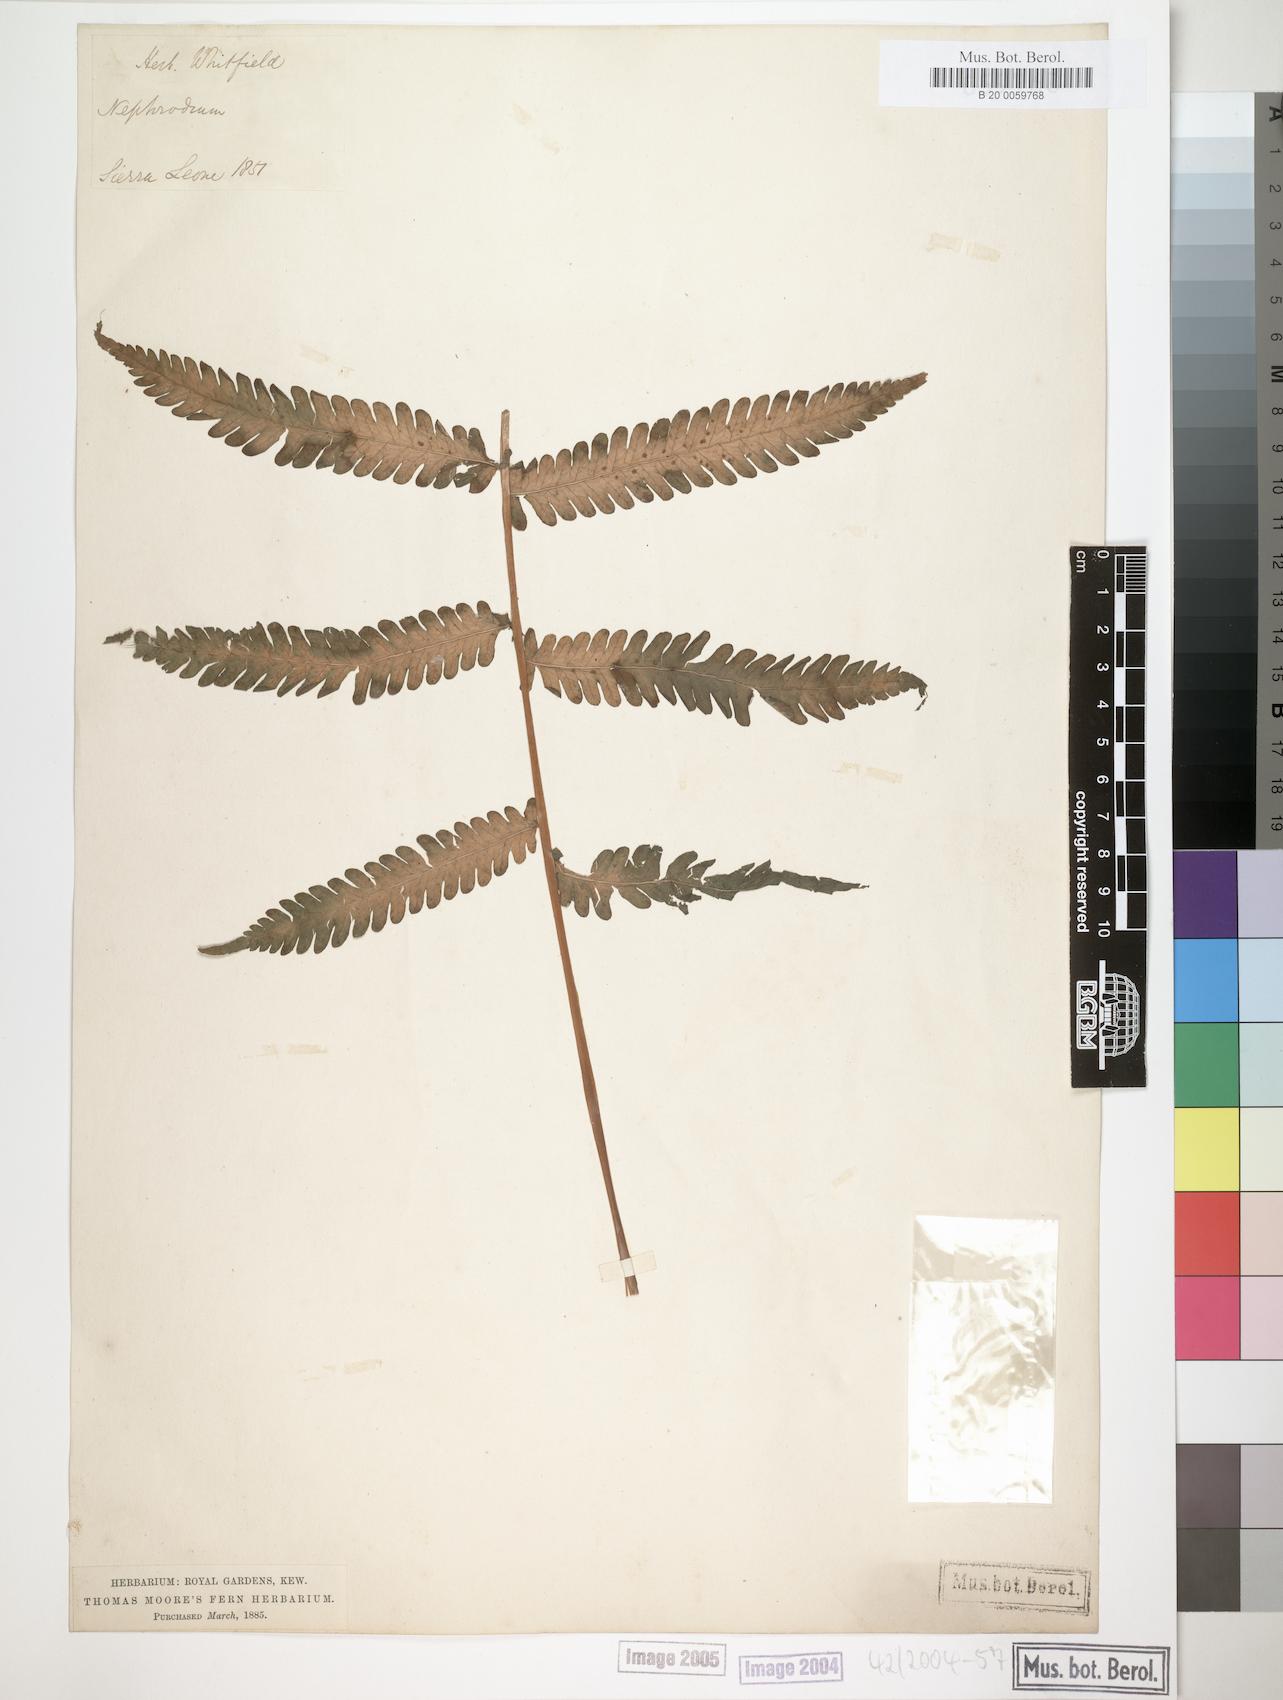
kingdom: Plantae
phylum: Tracheophyta
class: Polypodiopsida
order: Polypodiales
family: Thelypteridaceae
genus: Christella
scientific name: Christella dentata
